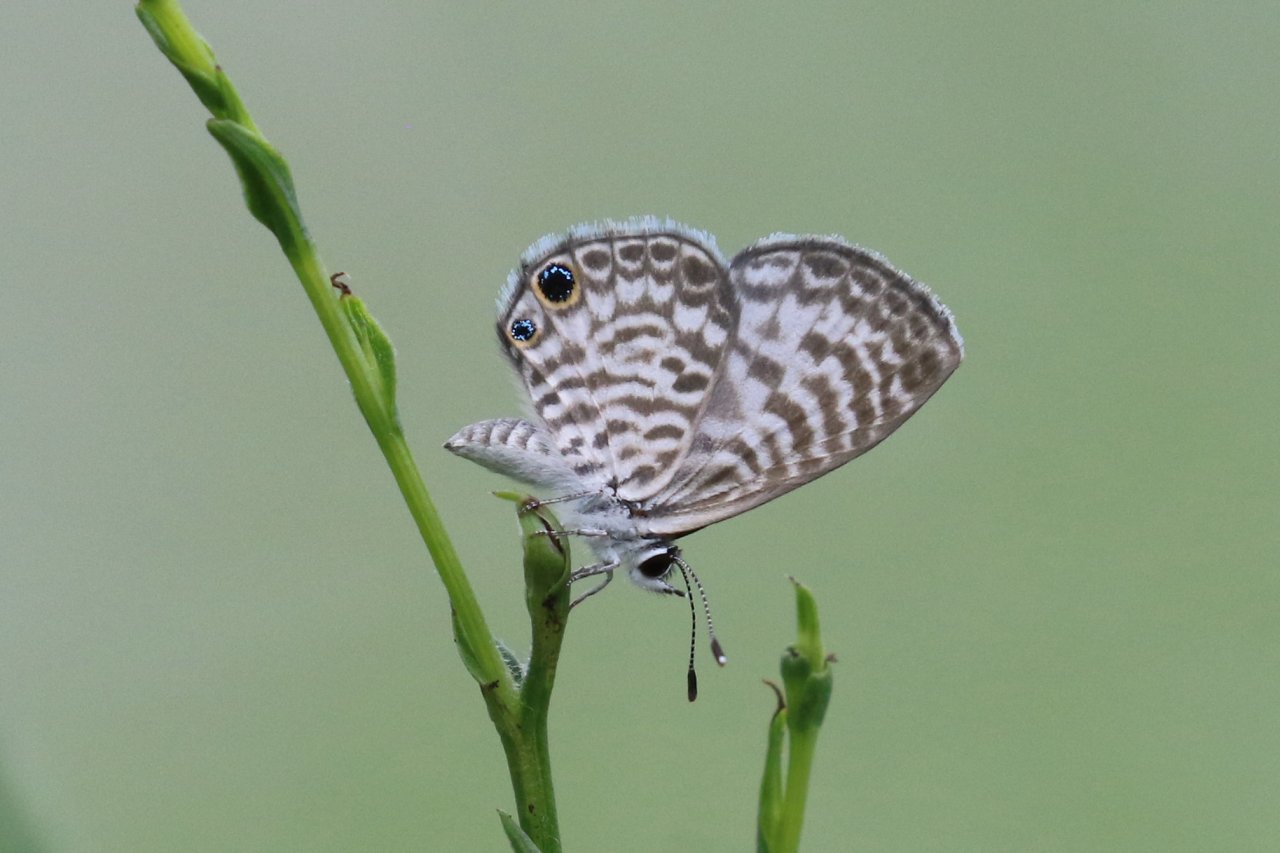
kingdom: Animalia
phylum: Arthropoda
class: Insecta
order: Lepidoptera
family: Lycaenidae
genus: Leptotes
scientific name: Leptotes cassius
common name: Cassius Blue
